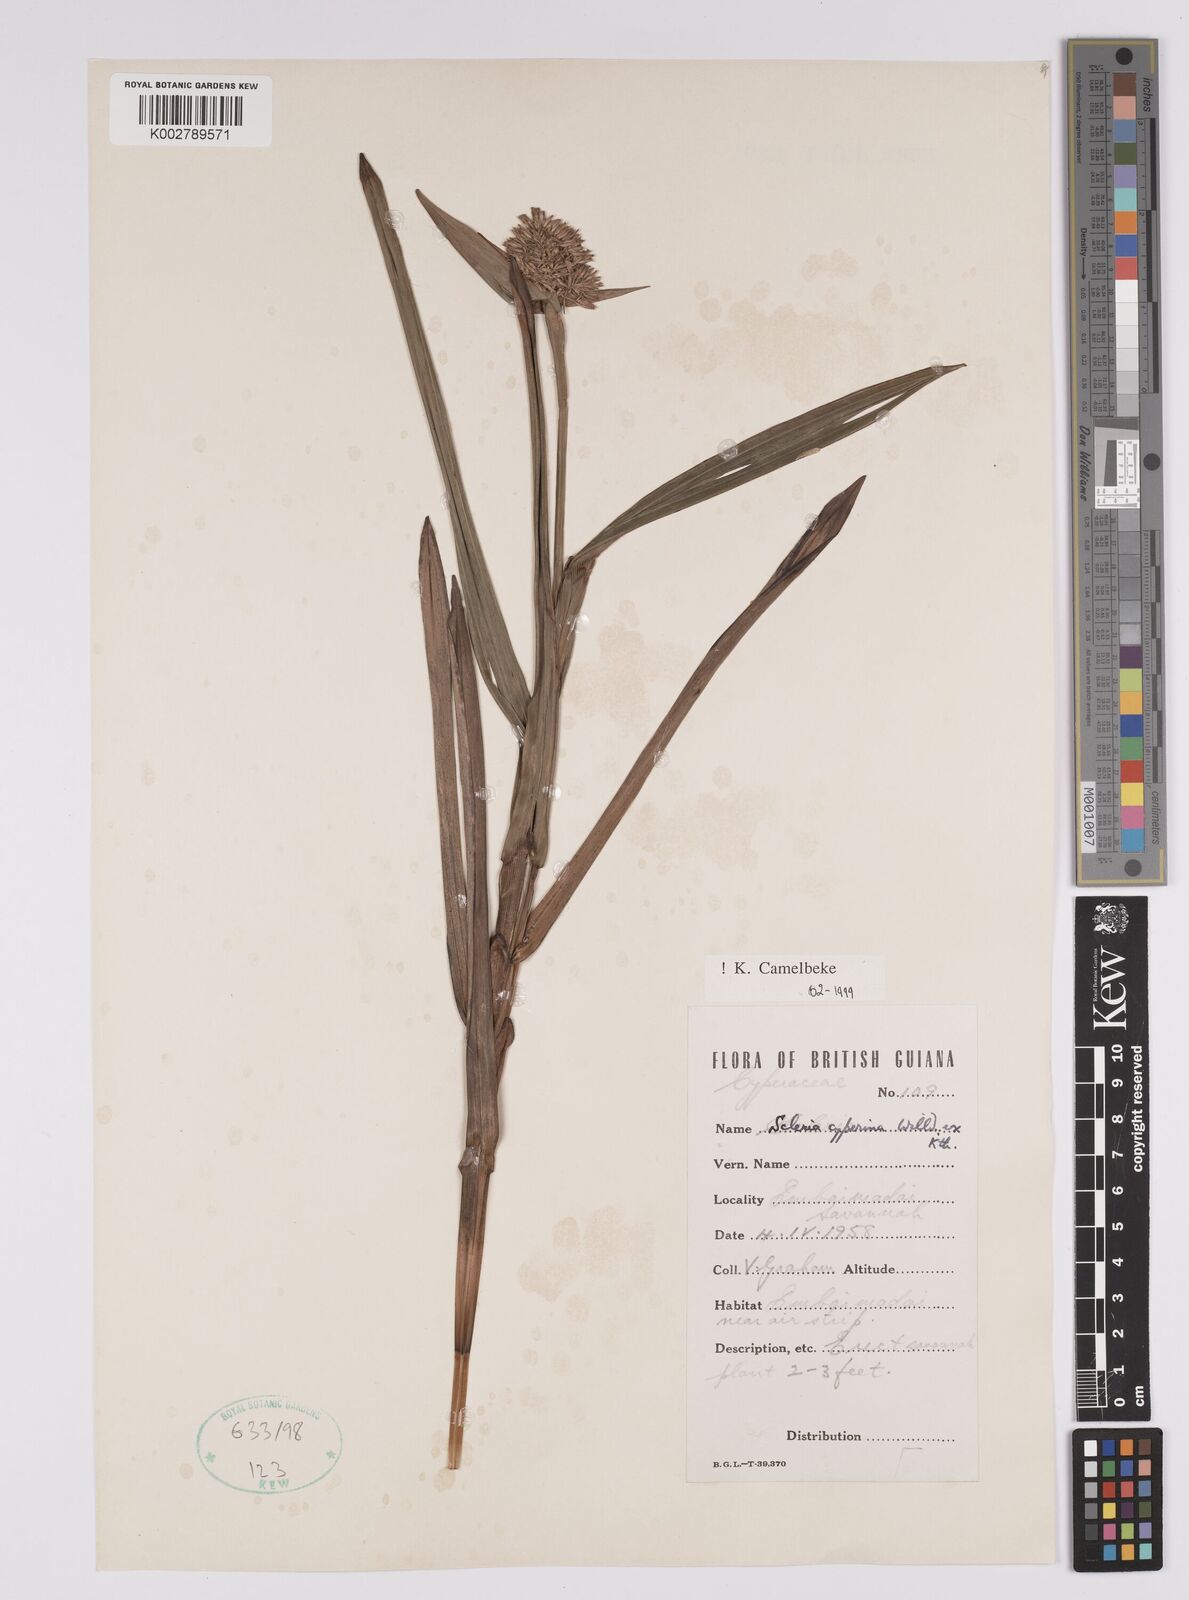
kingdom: Plantae
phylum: Tracheophyta
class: Liliopsida
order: Poales
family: Cyperaceae
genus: Scleria
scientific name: Scleria cyperina
